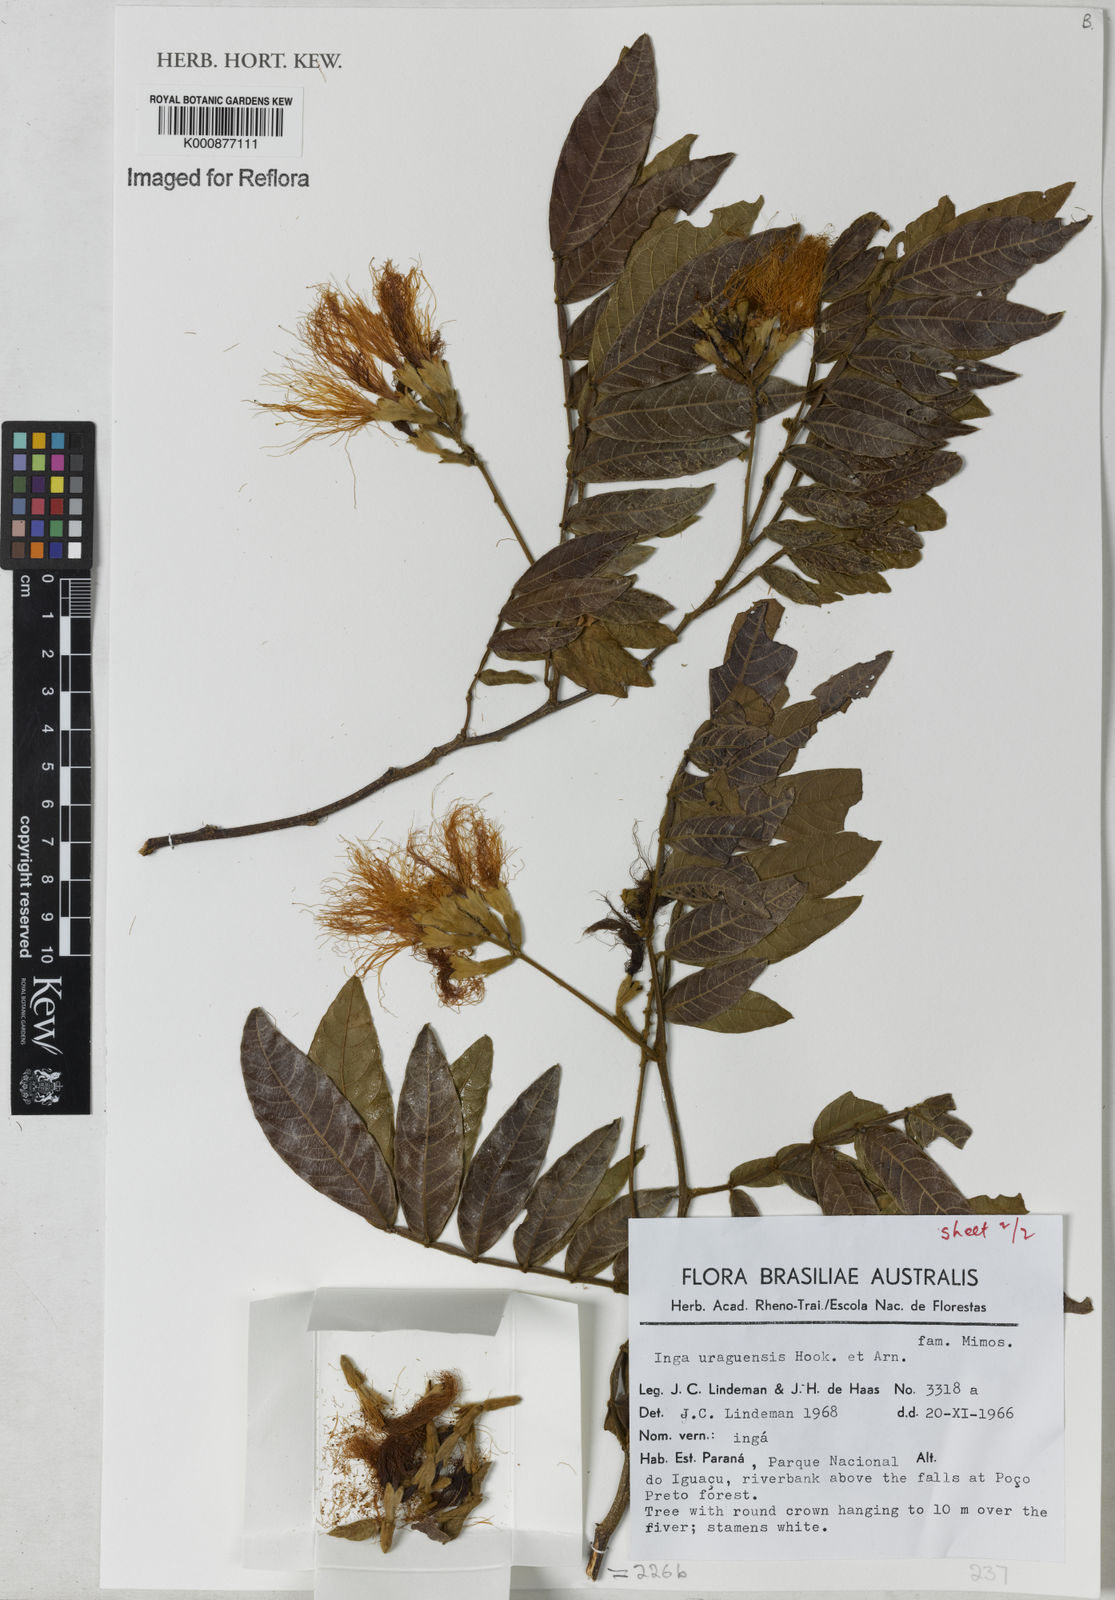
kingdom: Plantae
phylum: Tracheophyta
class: Magnoliopsida
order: Fabales
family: Fabaceae
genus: Inga
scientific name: Inga affinis
